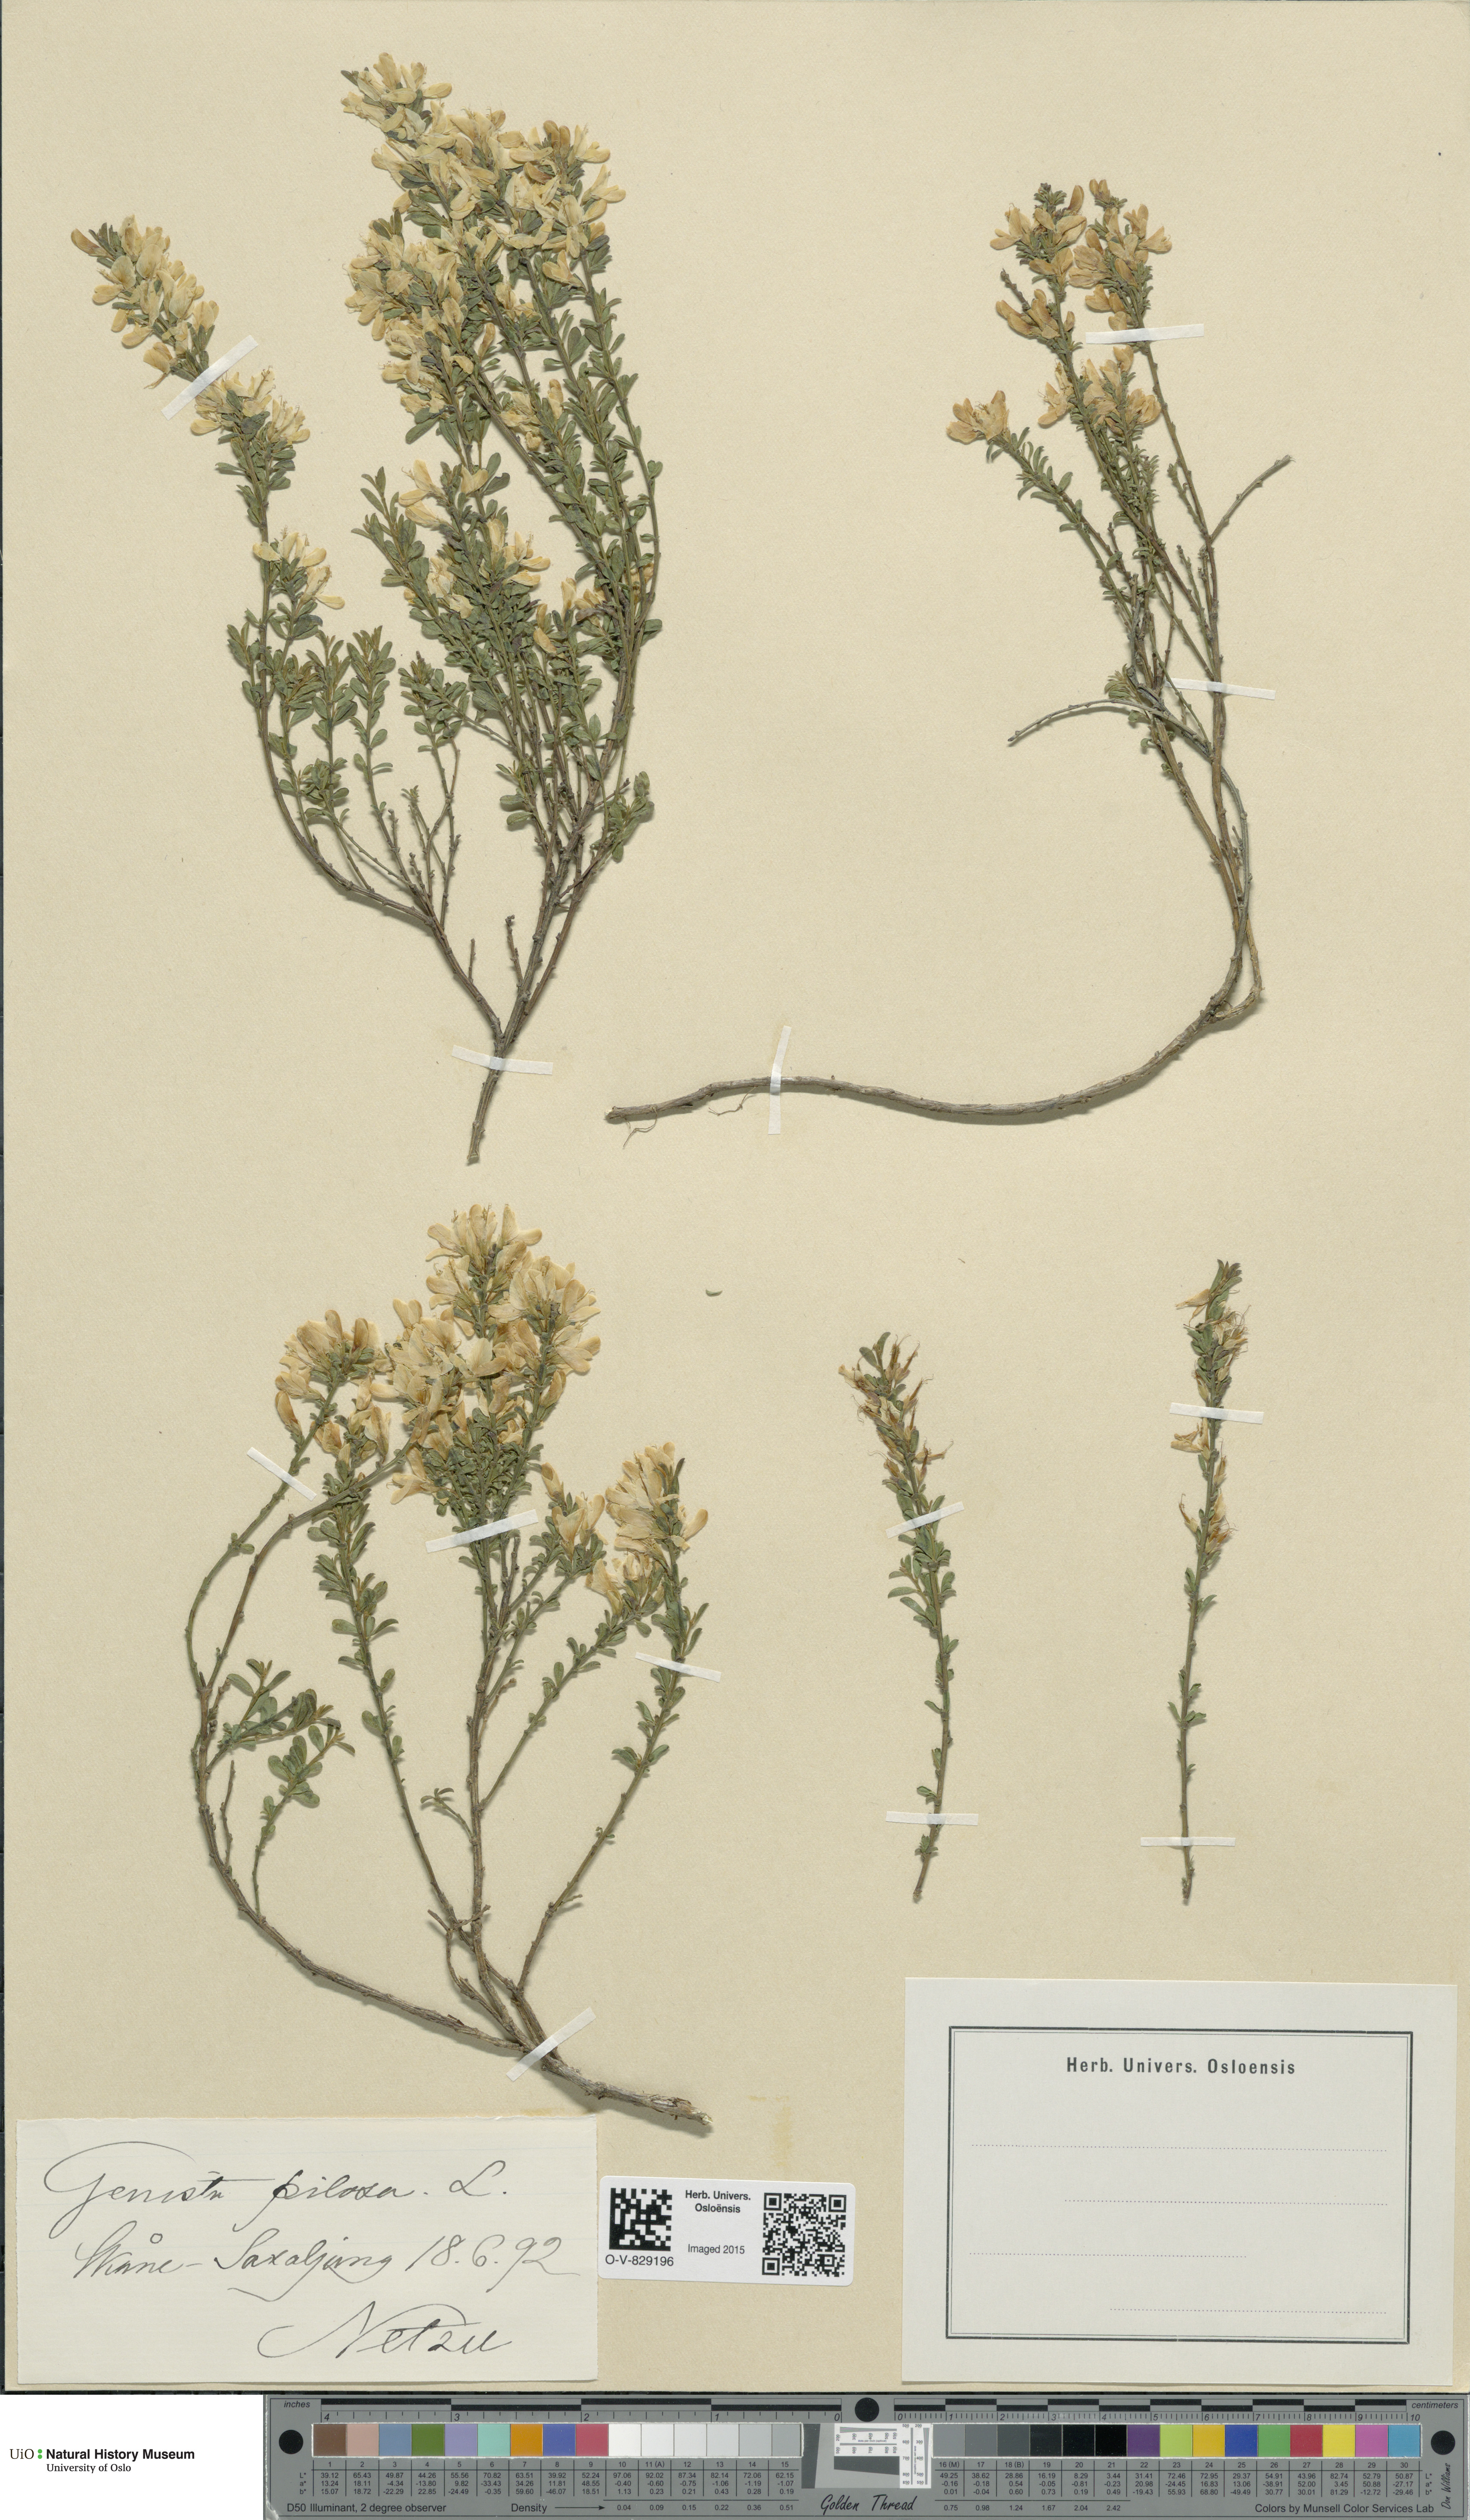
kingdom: Plantae
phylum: Tracheophyta
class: Magnoliopsida
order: Fabales
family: Fabaceae
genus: Genista
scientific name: Genista pilosa
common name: Hairy greenweed
